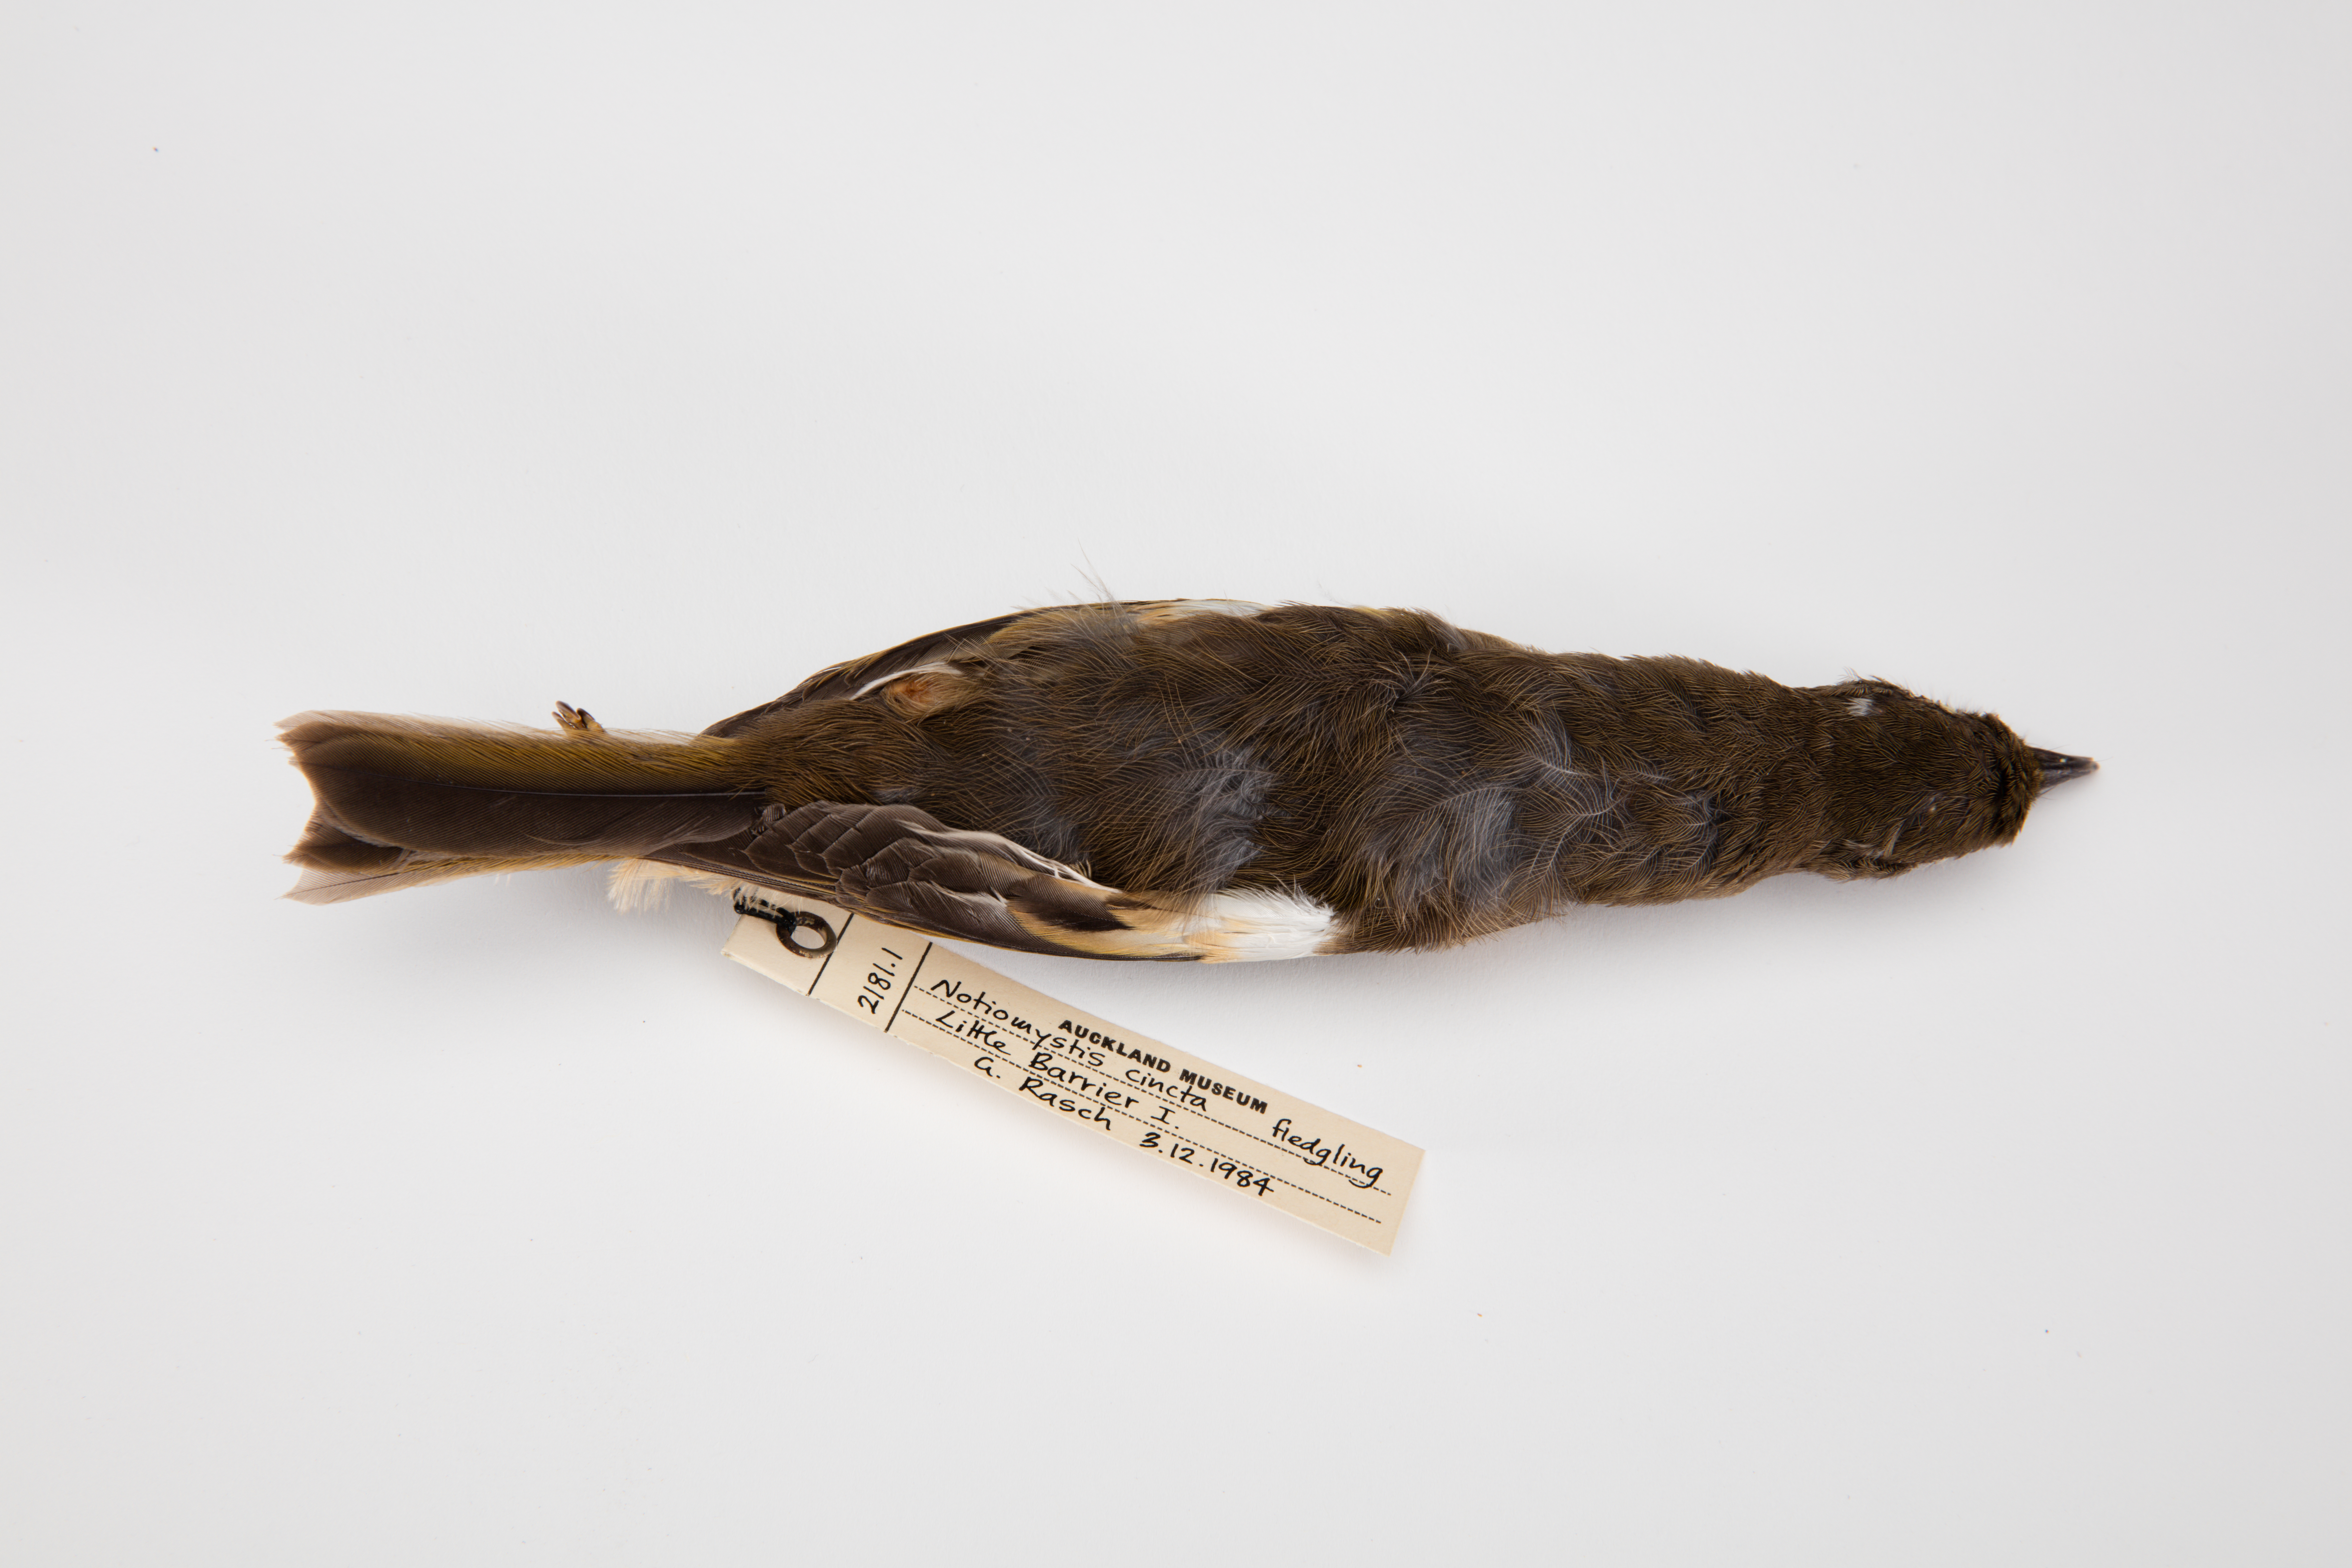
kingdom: Animalia
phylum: Chordata
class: Aves
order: Passeriformes
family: Notiomystidae
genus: Notiomystis
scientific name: Notiomystis cincta
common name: Stitchbird
